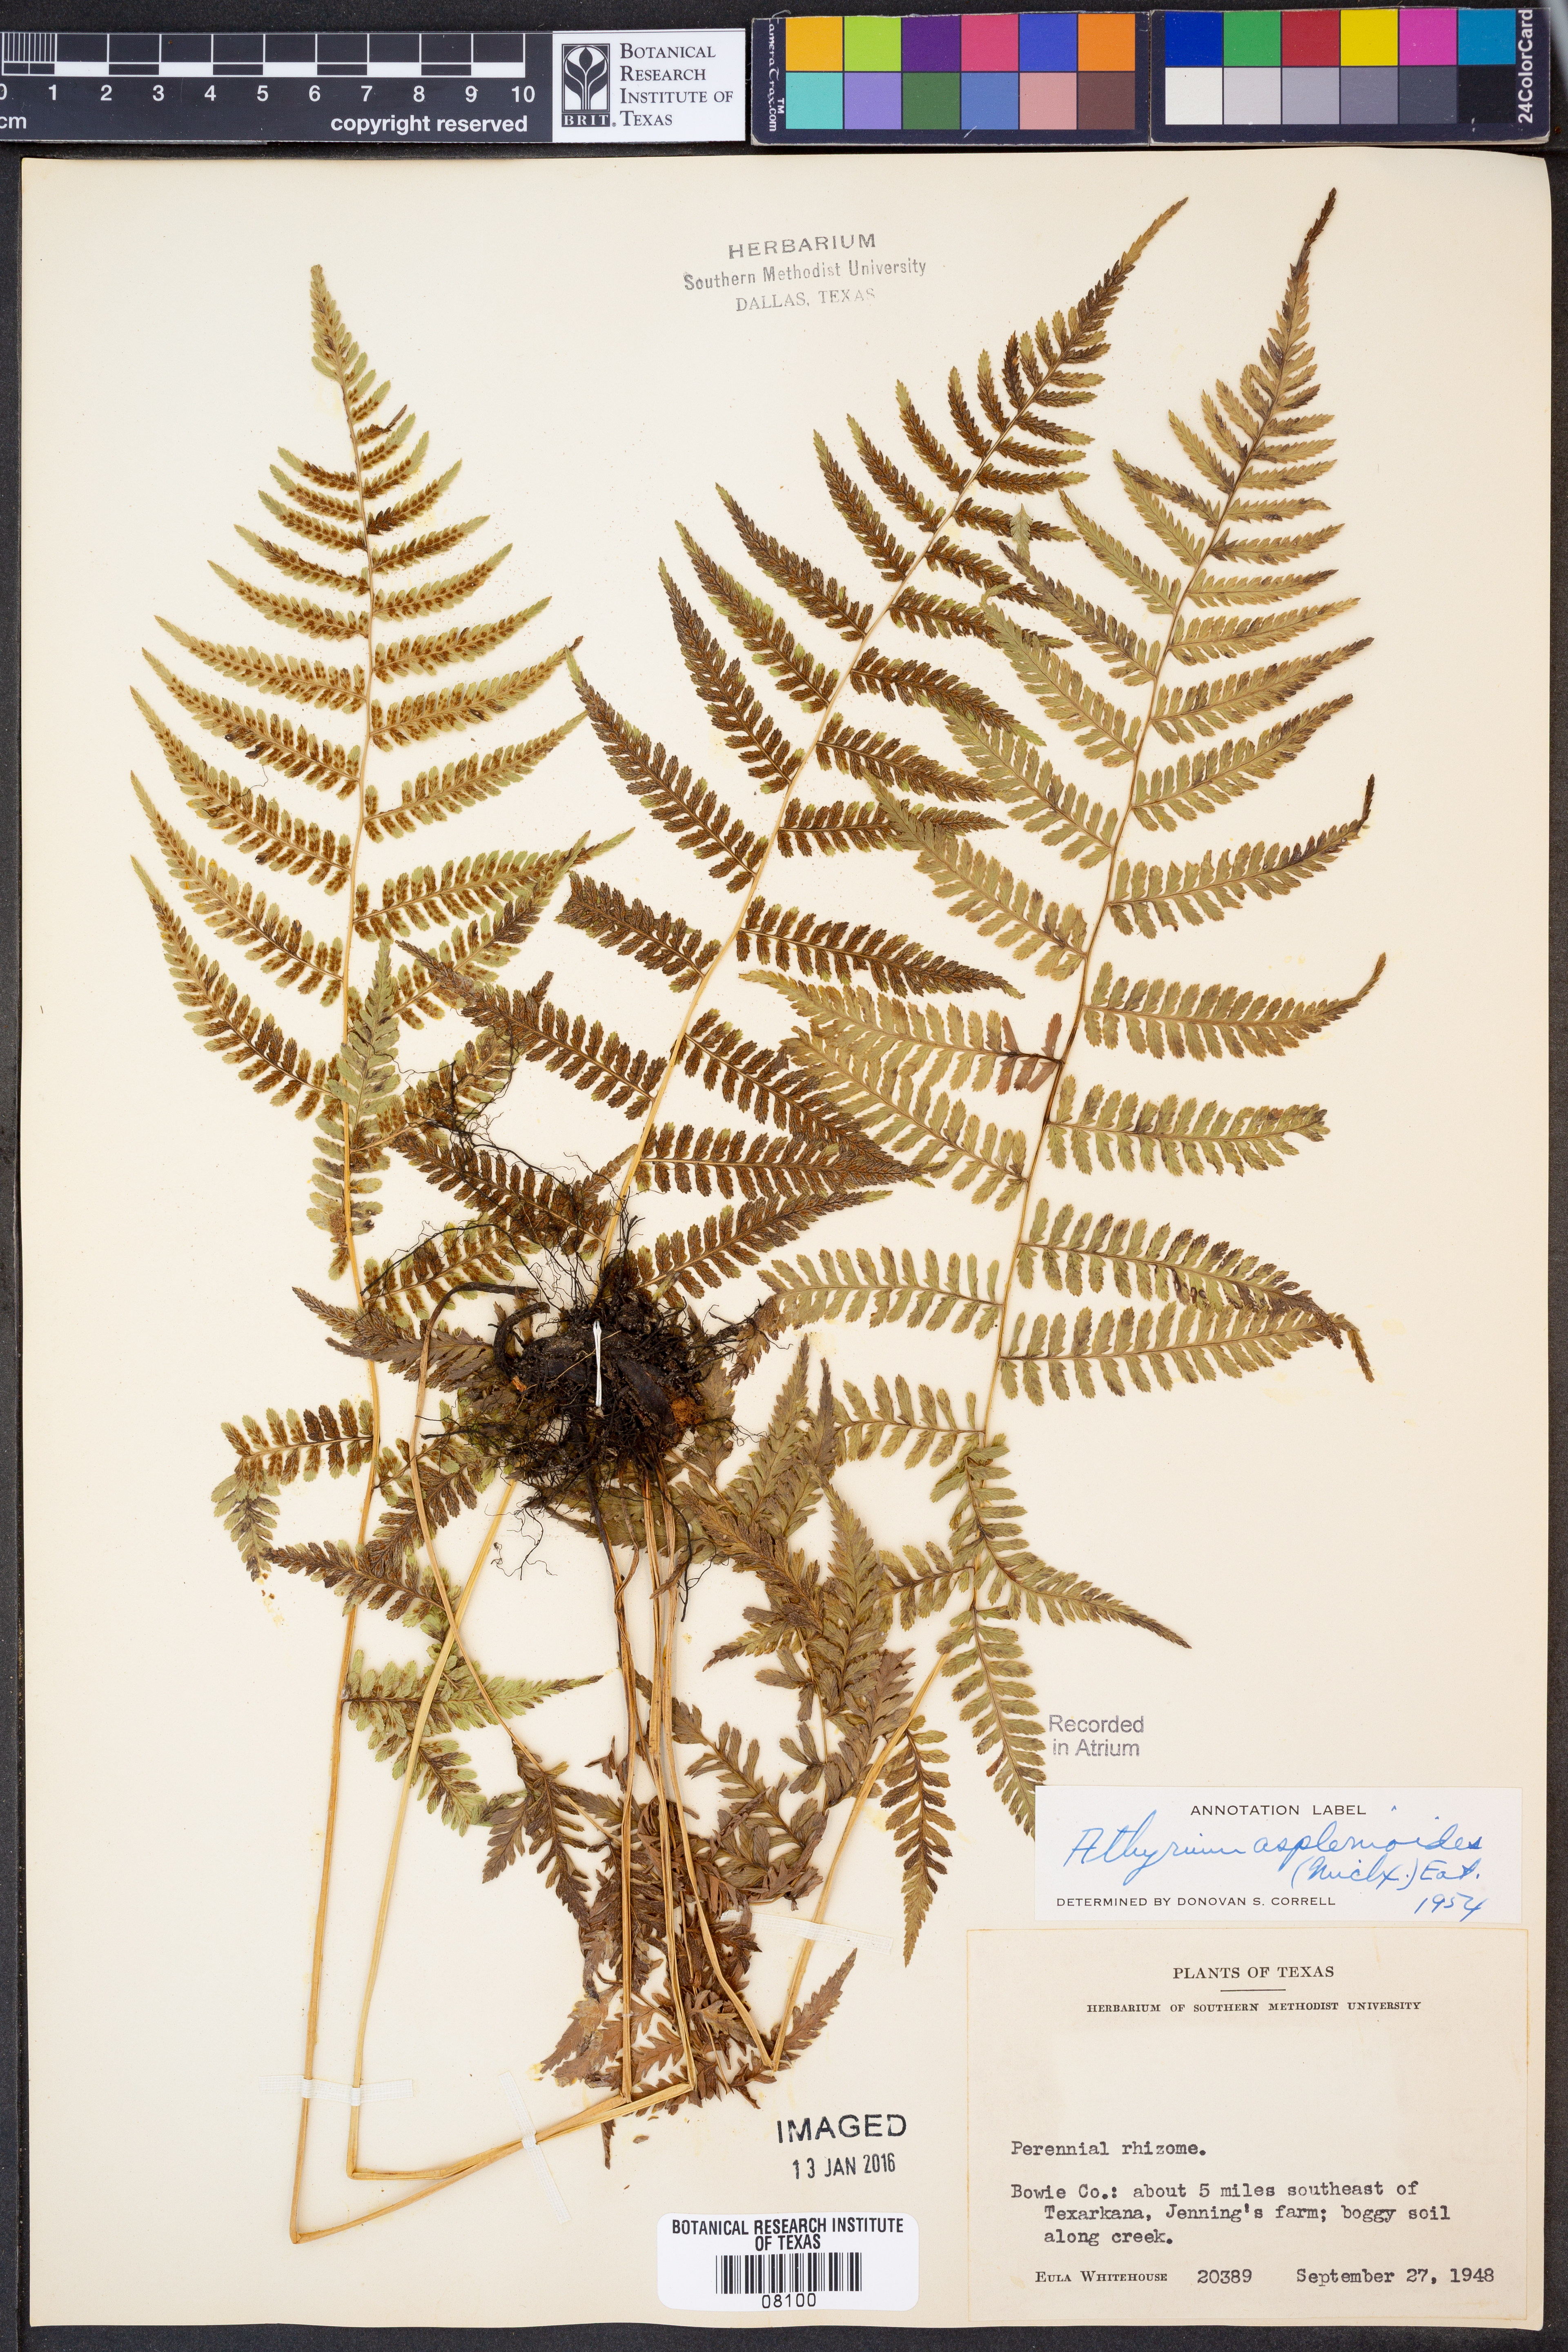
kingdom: Plantae
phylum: Tracheophyta
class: Polypodiopsida
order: Polypodiales
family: Athyriaceae
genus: Athyrium
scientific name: Athyrium asplenioides
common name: Southern lady fern
